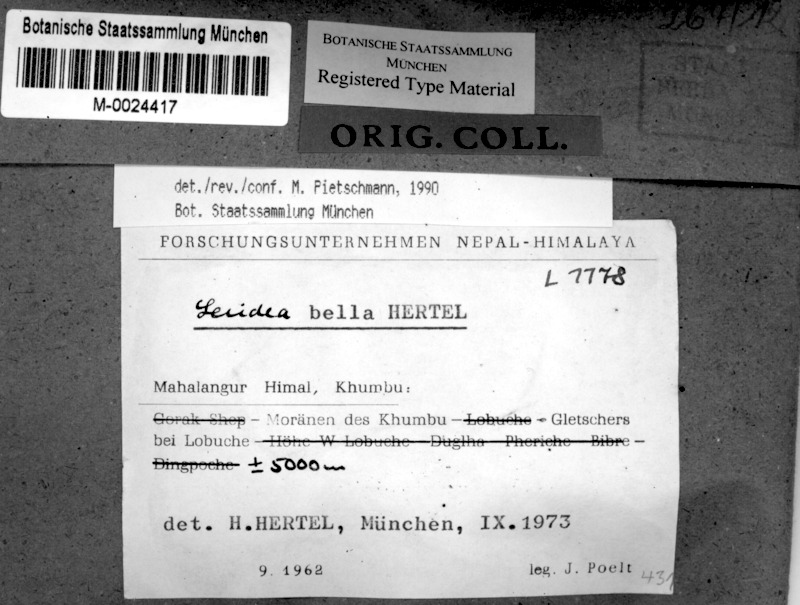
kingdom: Fungi
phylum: Ascomycota
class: Lecanoromycetes
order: Lecideales
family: Lecideaceae
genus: Lecidea
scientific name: Lecidea
